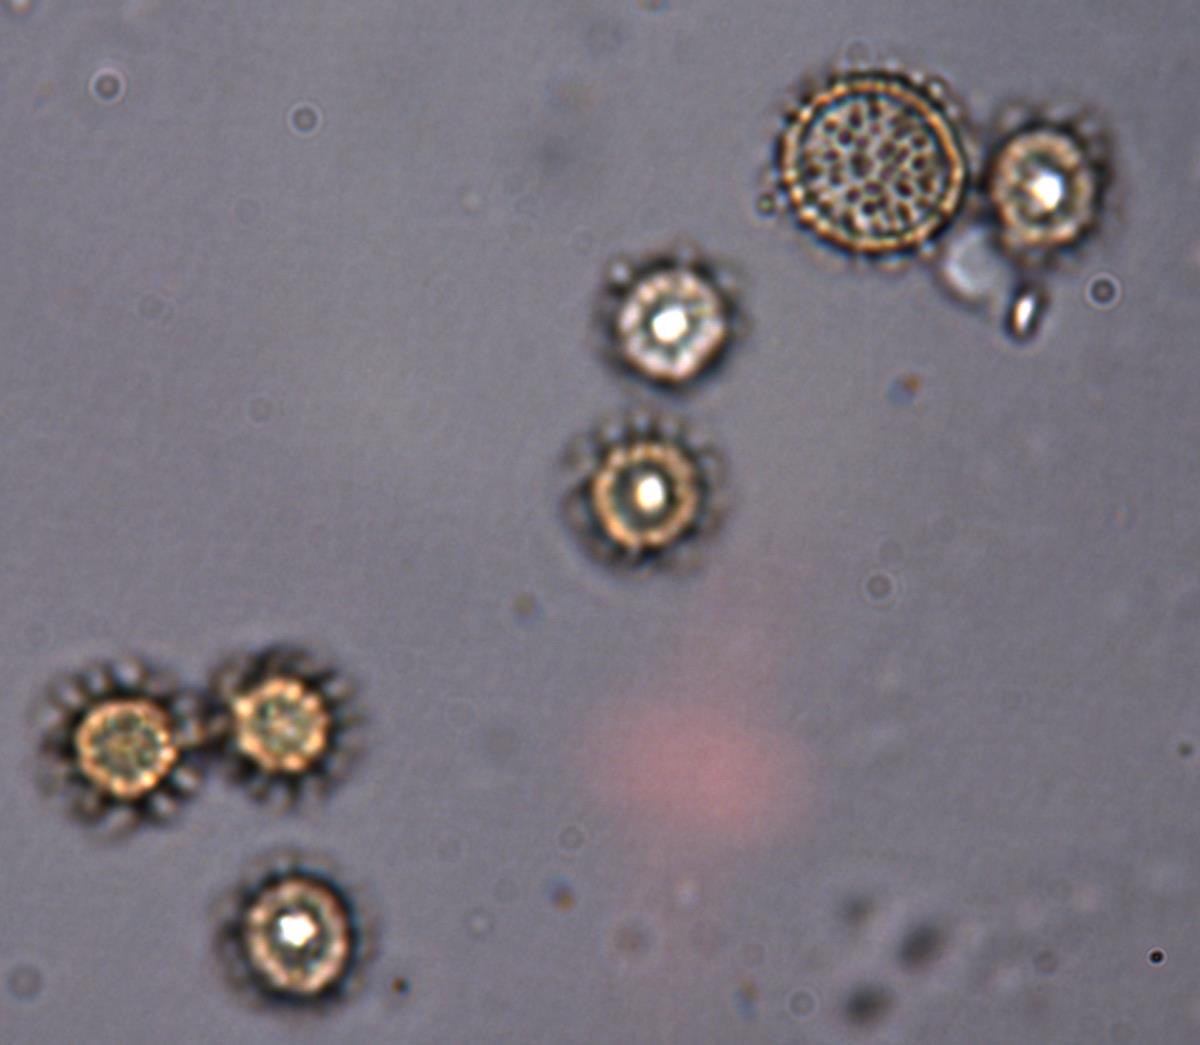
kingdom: Fungi
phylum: Basidiomycota
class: Agaricomycetes
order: Boletales
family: Sclerodermataceae
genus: Pisolithus
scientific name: Pisolithus thermaeus
